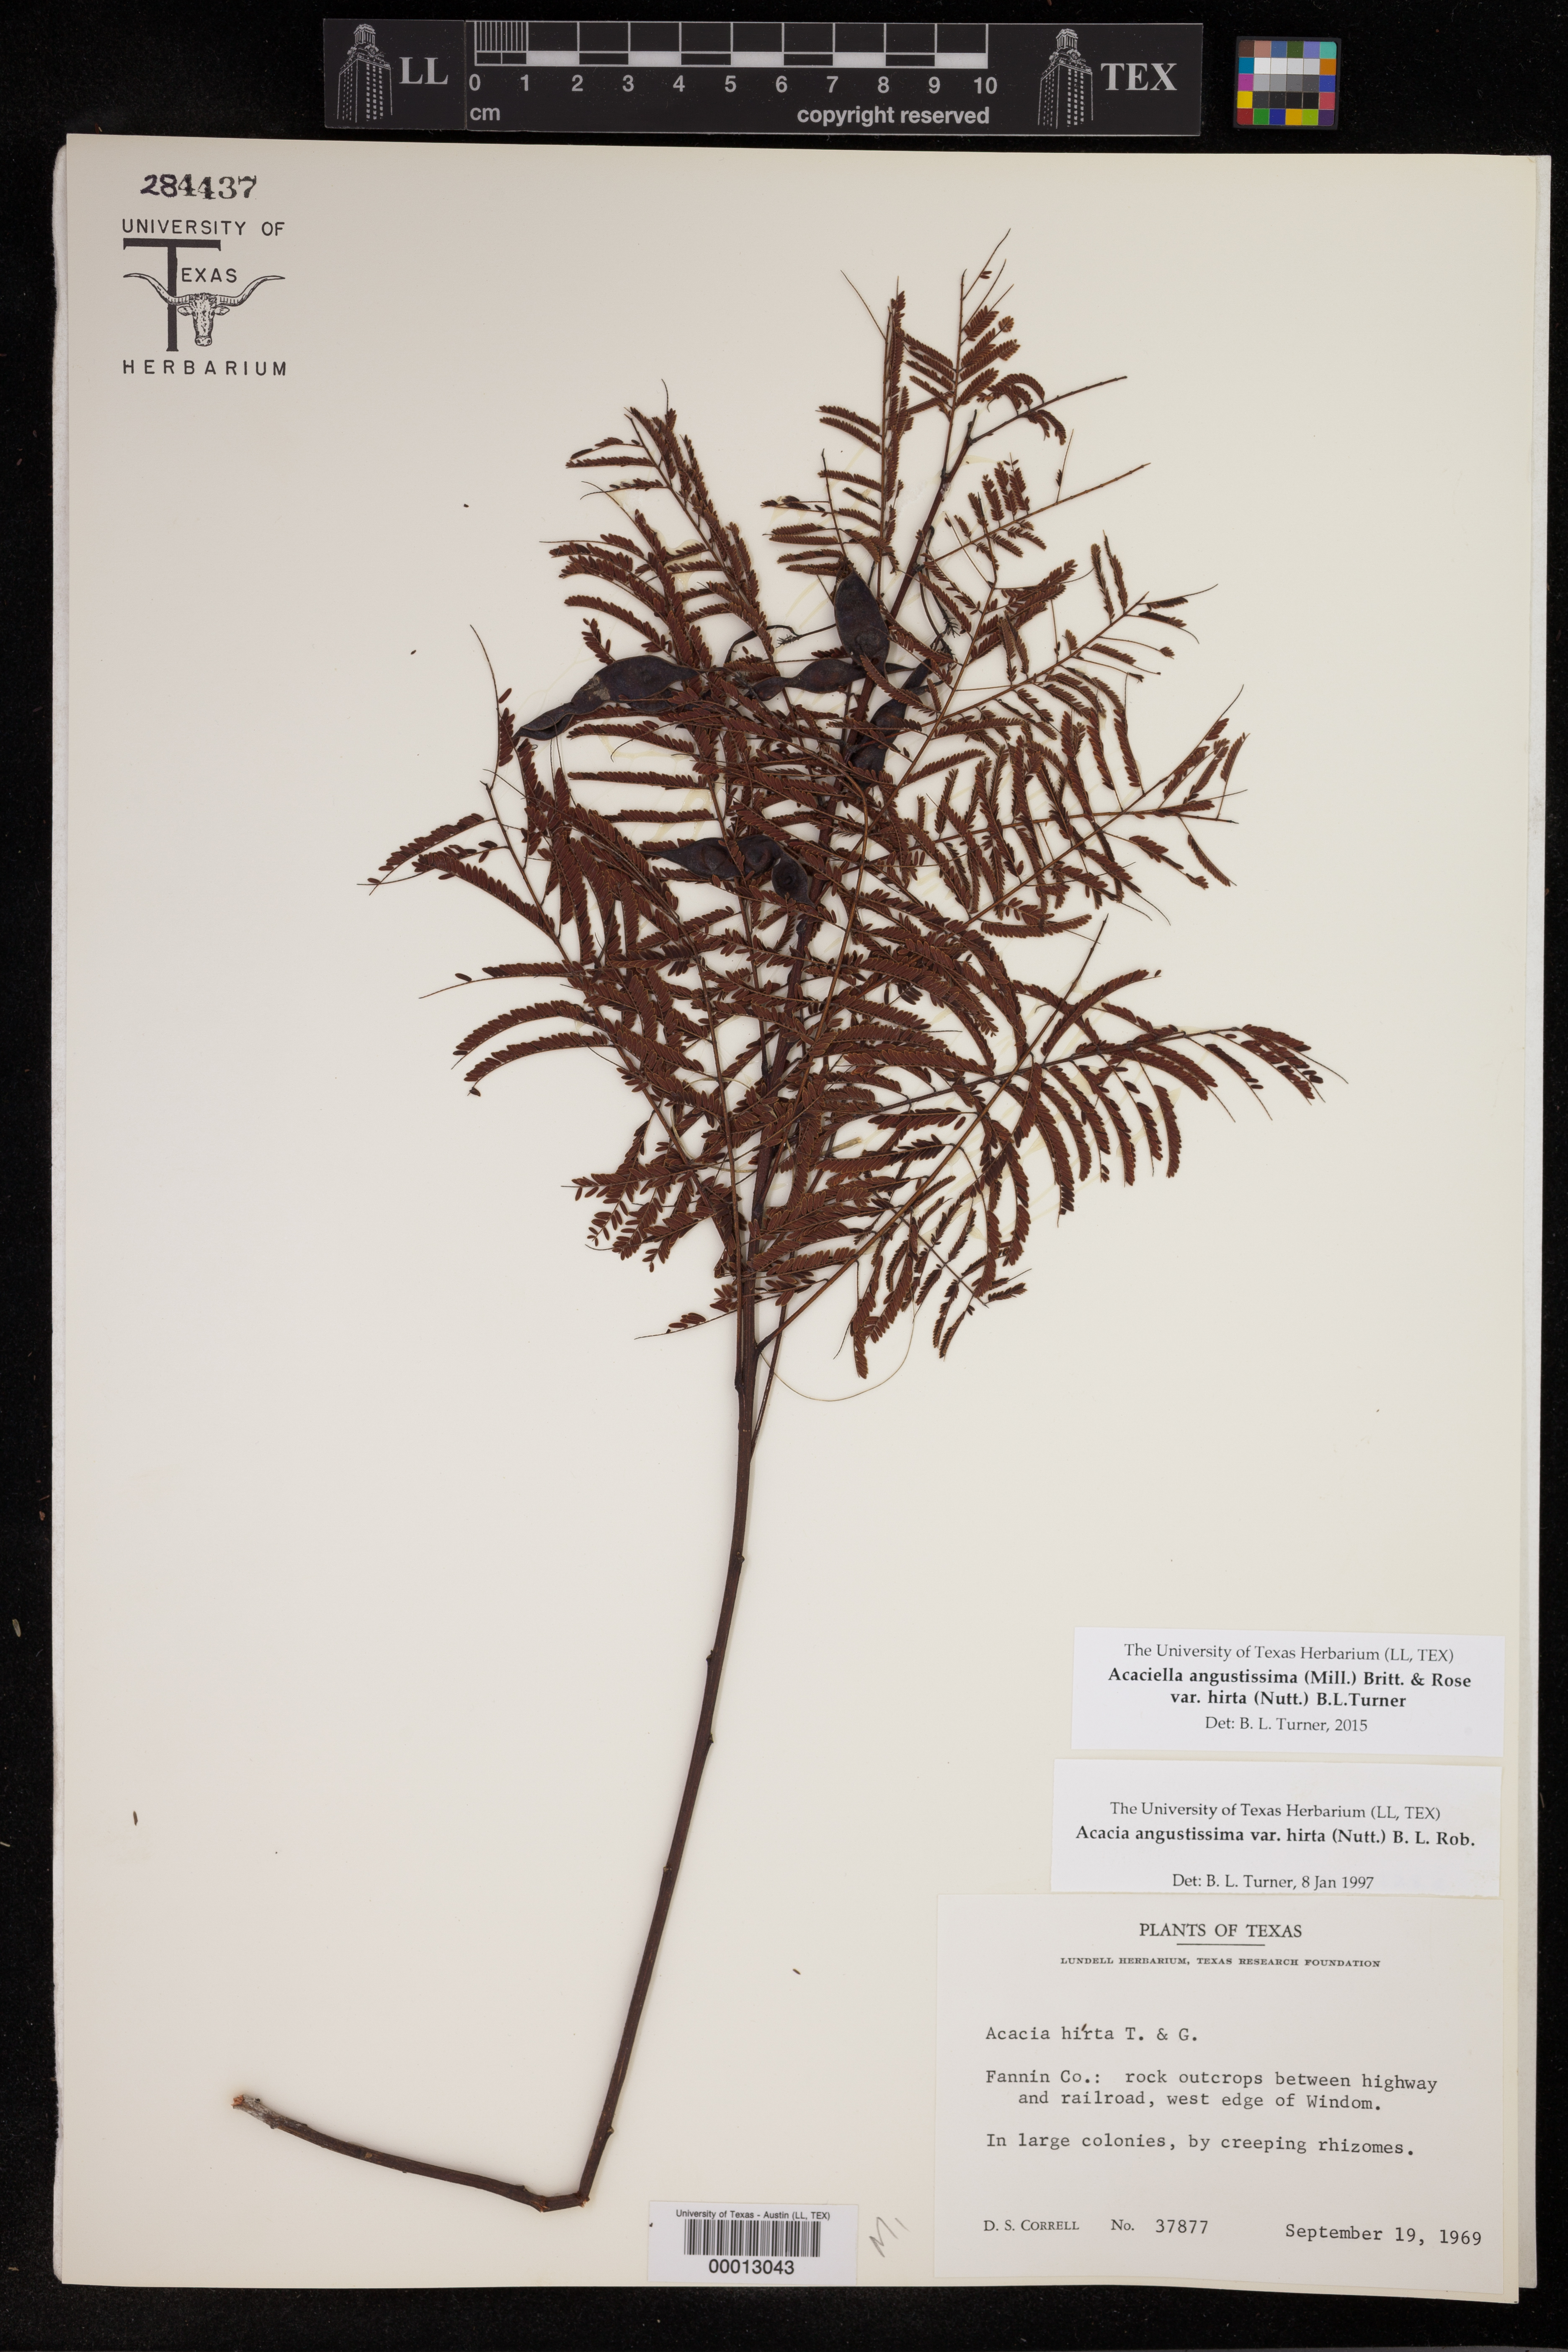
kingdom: Plantae
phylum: Tracheophyta
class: Magnoliopsida
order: Fabales
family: Fabaceae
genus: Acaciella
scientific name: Acaciella angustissima
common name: Prairie acacia
